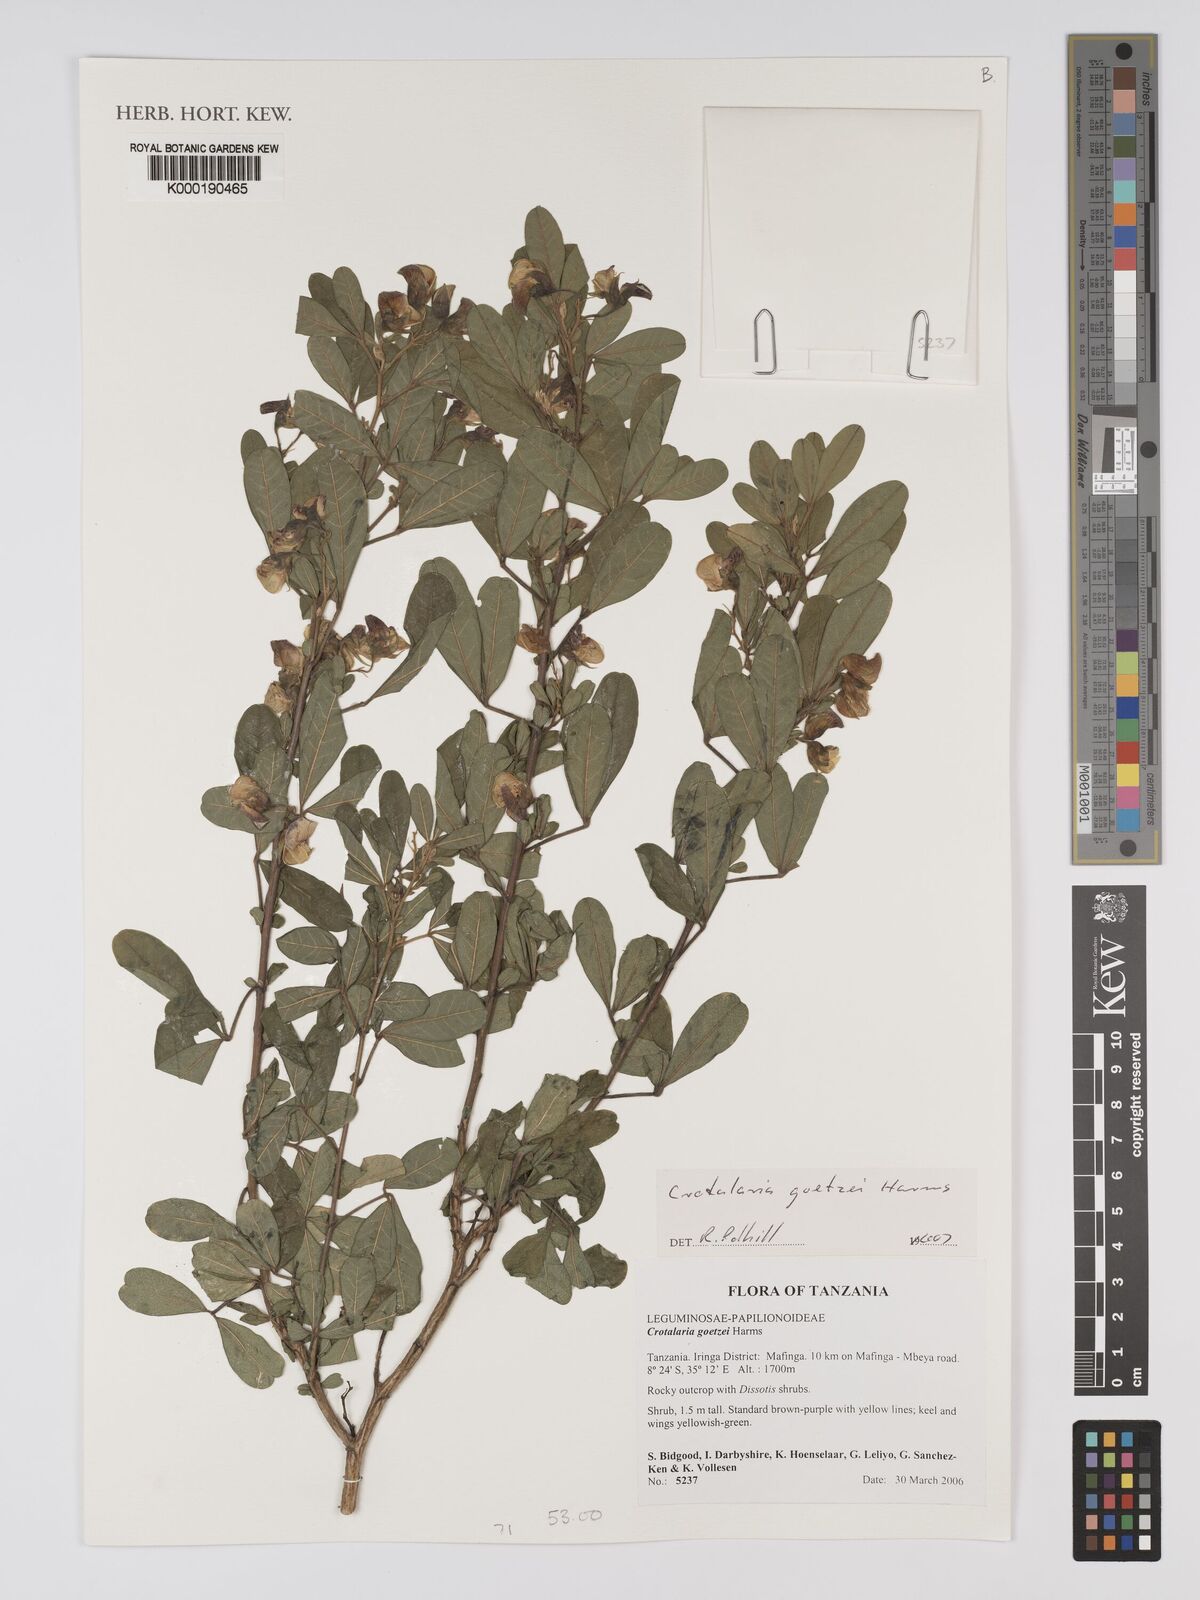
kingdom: Plantae
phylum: Tracheophyta
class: Magnoliopsida
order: Fabales
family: Fabaceae
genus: Crotalaria
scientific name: Crotalaria goetzei
